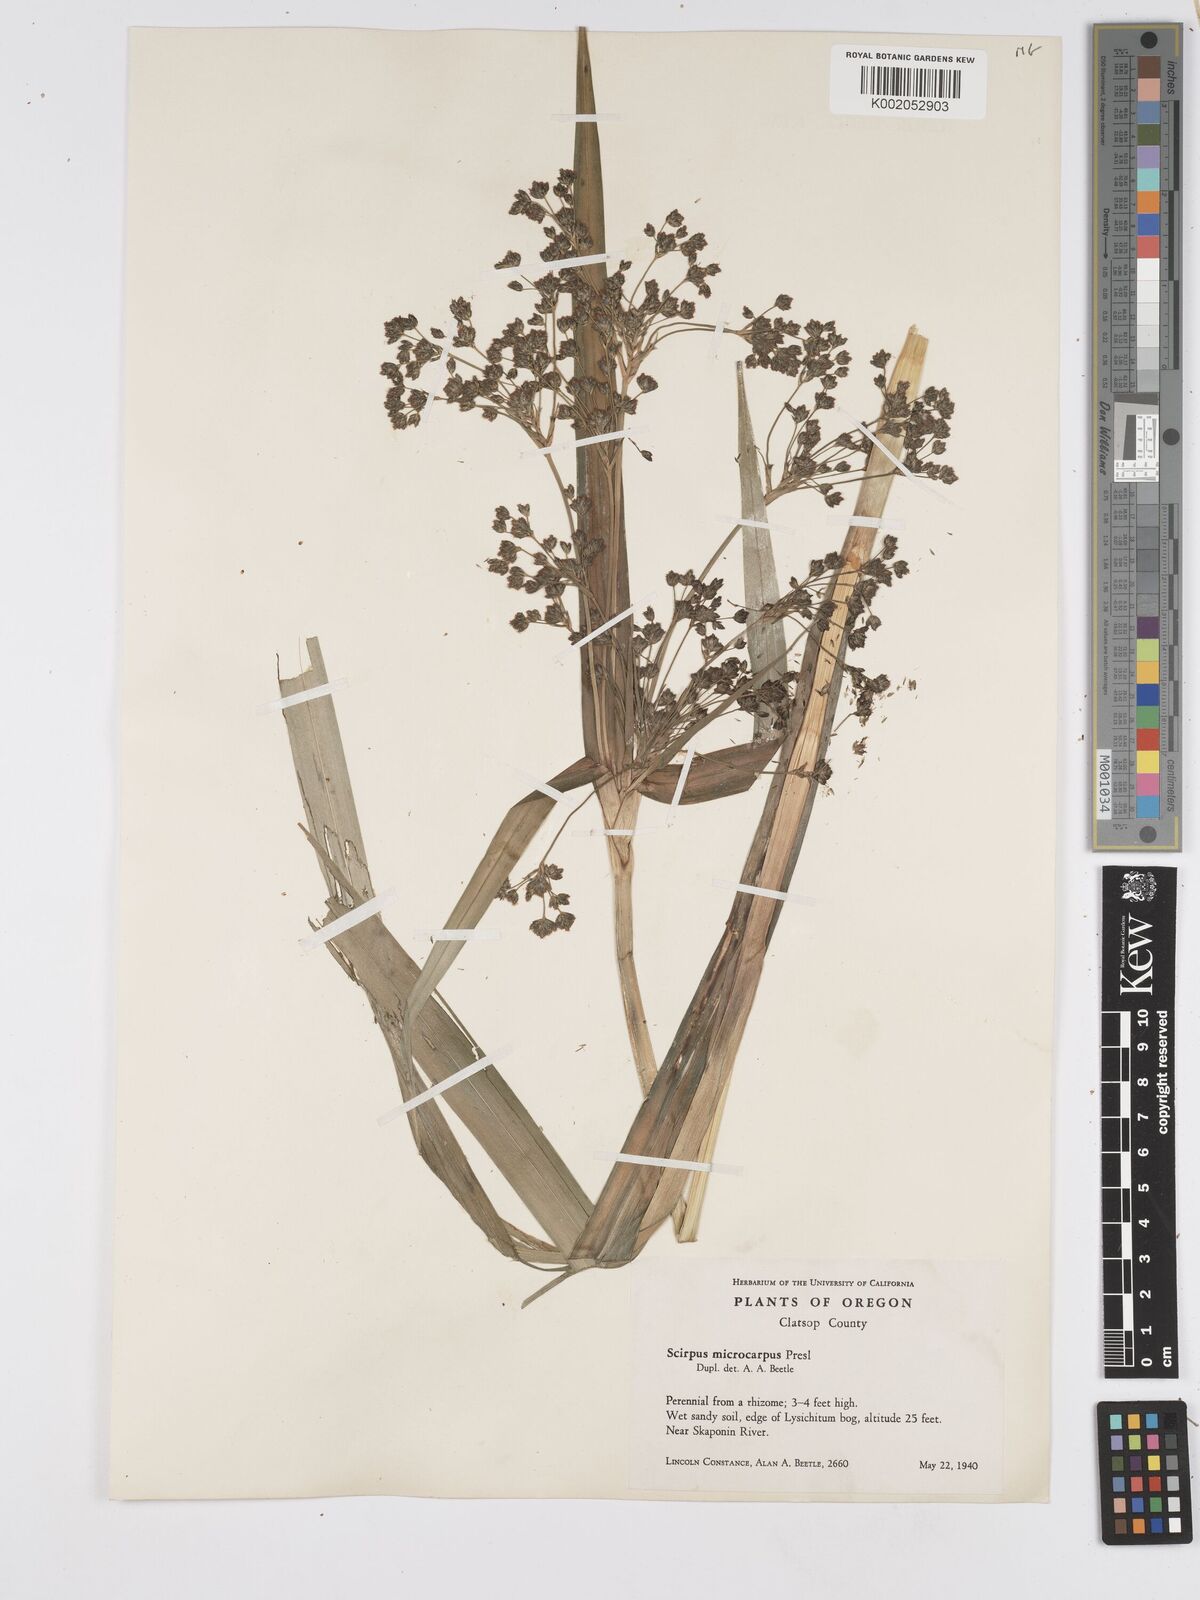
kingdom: Plantae
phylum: Tracheophyta
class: Liliopsida
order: Poales
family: Cyperaceae
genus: Scirpus
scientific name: Scirpus sylvaticus
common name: Wood club-rush
